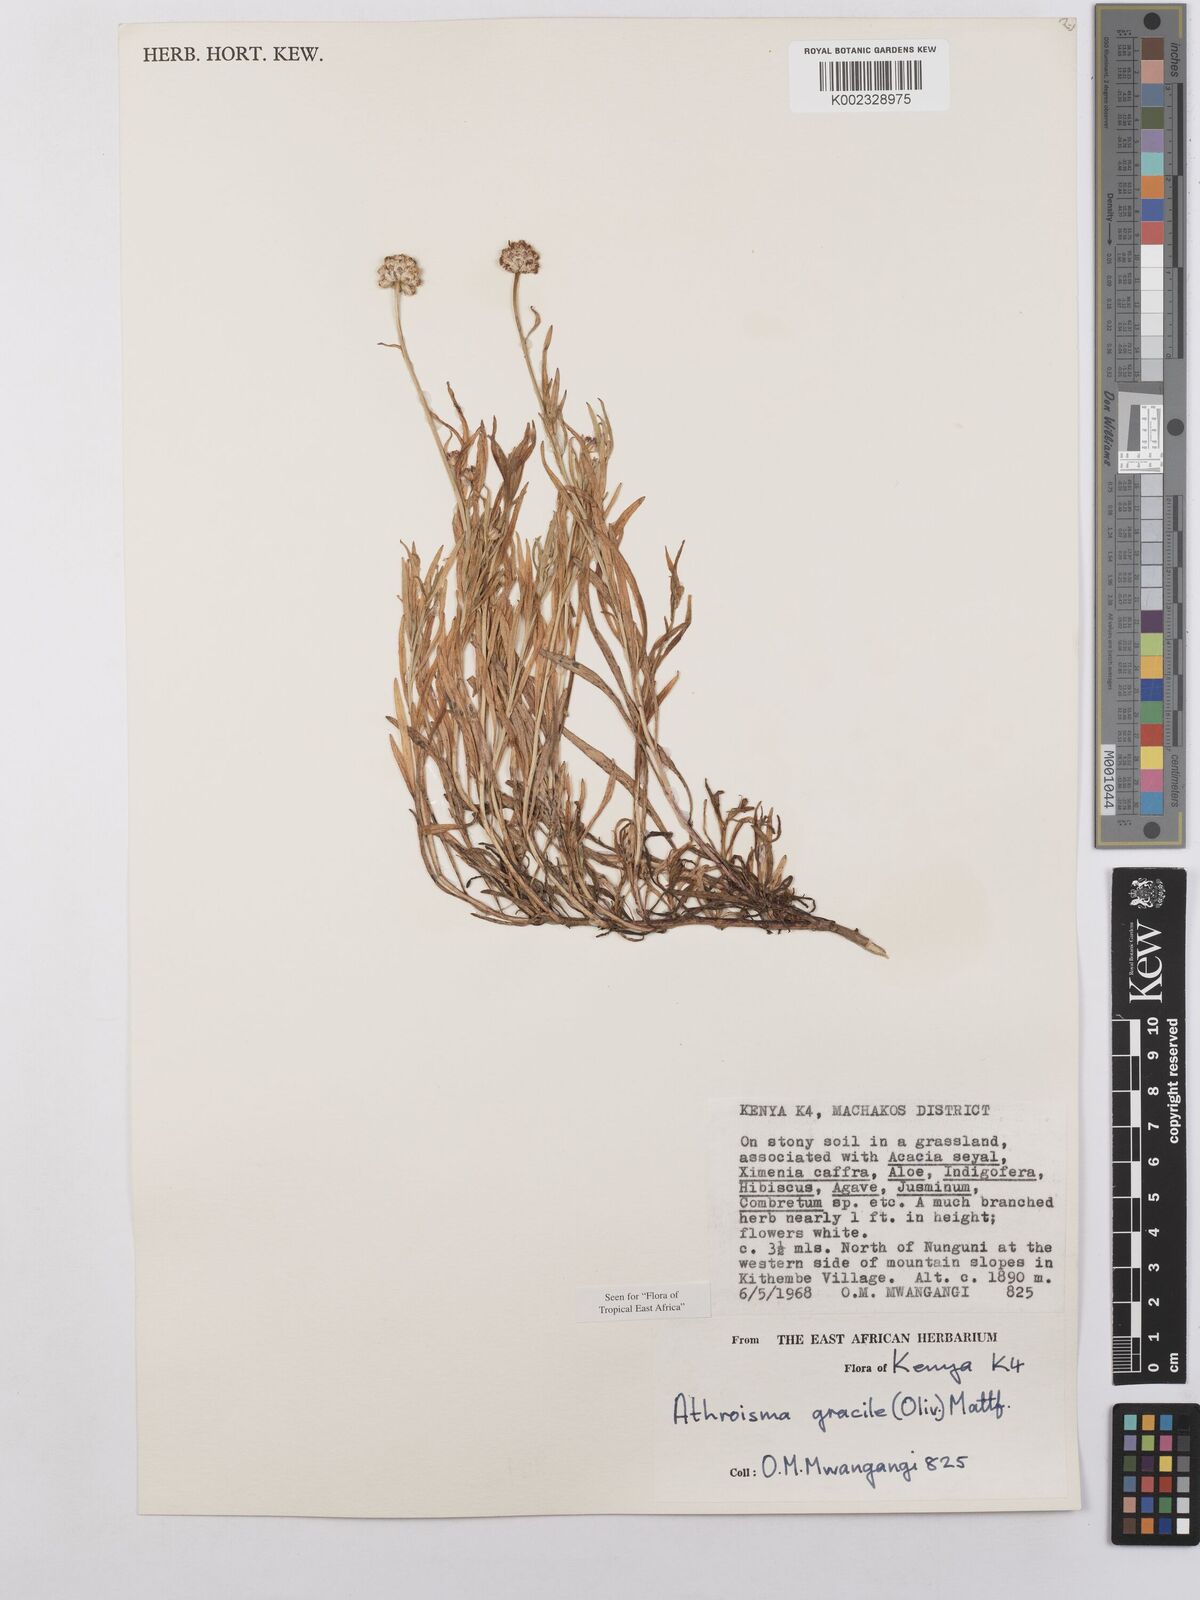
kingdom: Plantae
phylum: Tracheophyta
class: Magnoliopsida
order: Asterales
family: Asteraceae
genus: Athroisma
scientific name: Athroisma gracile
